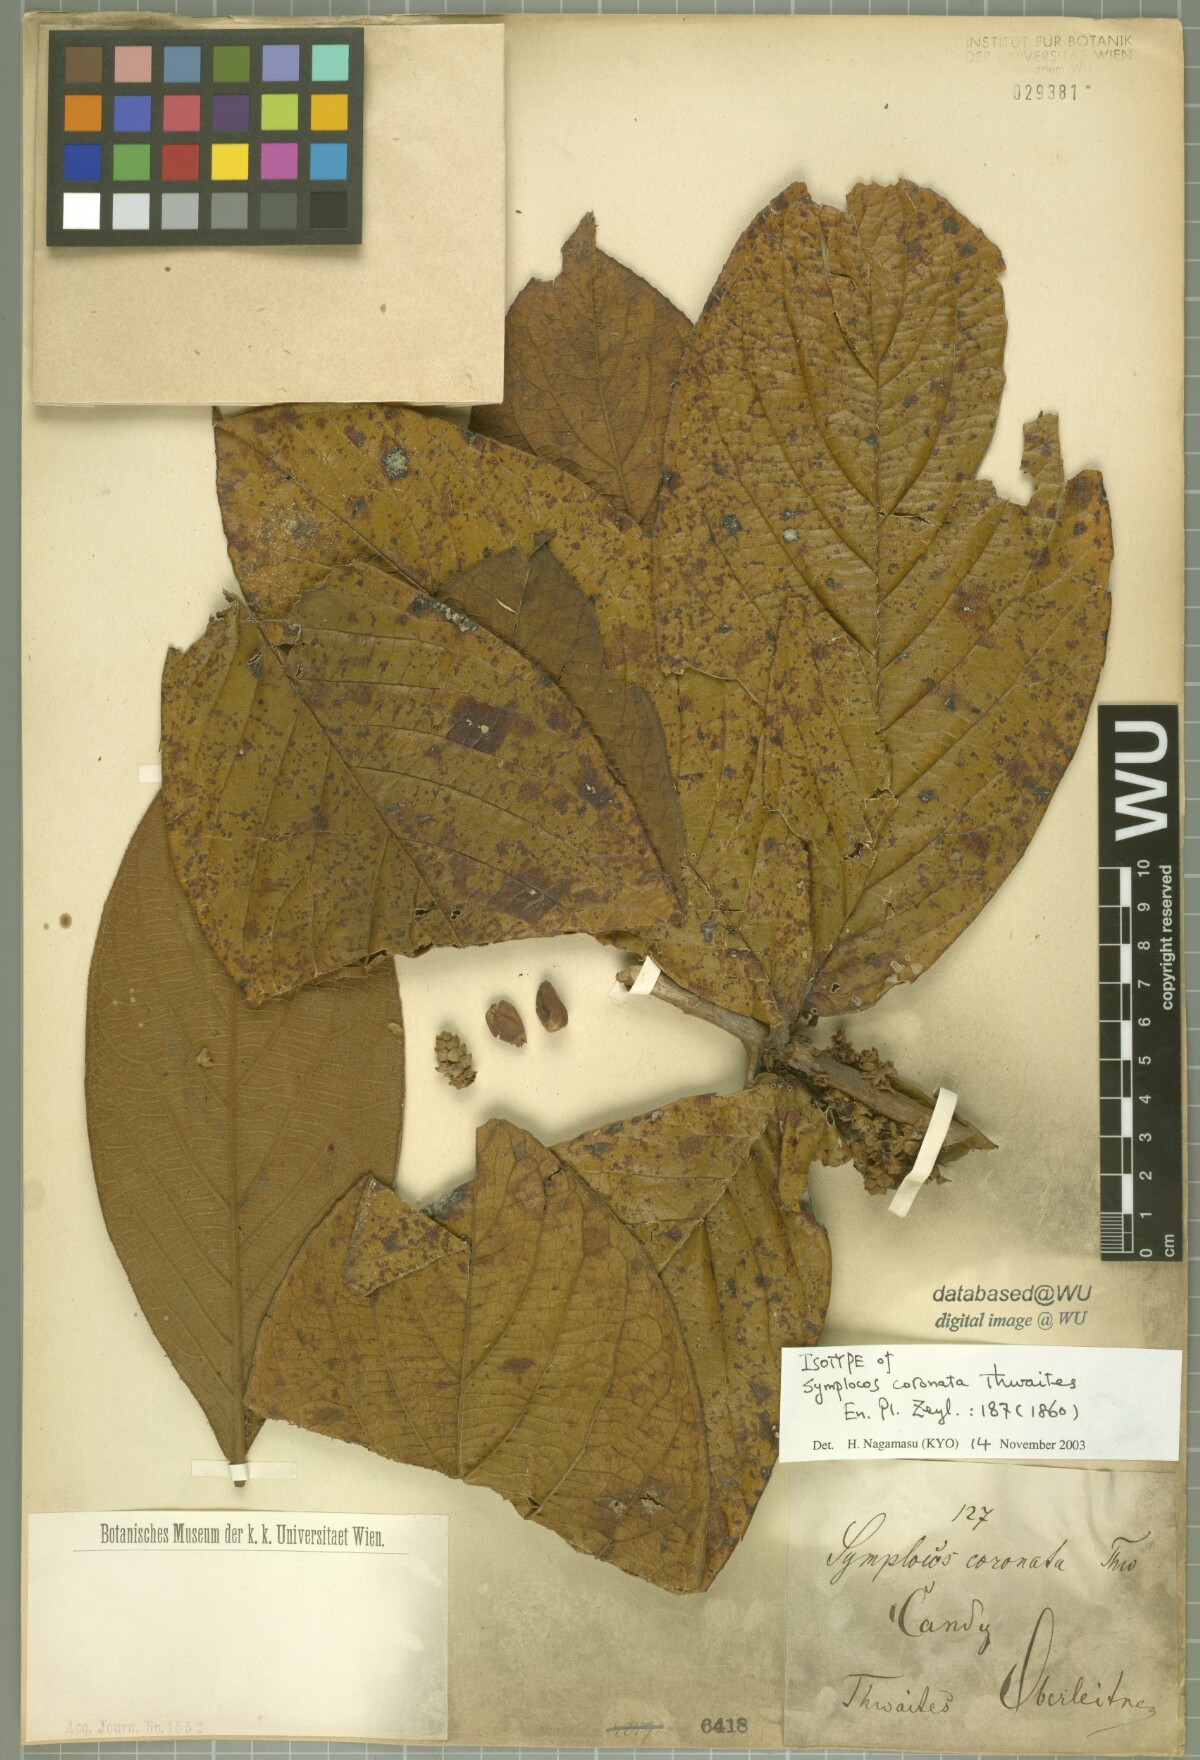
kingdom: Plantae
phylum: Tracheophyta
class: Magnoliopsida
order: Ericales
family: Symplocaceae
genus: Symplocos
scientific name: Symplocos coronata
